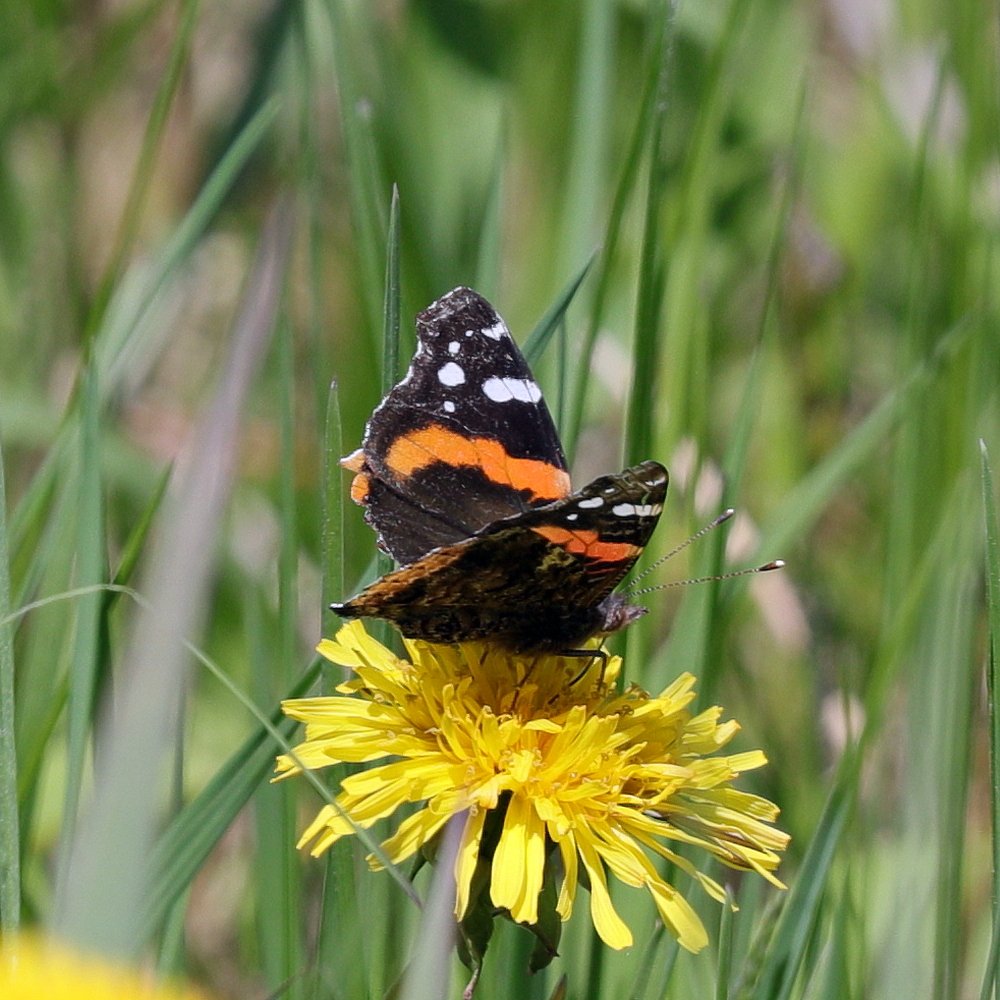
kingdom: Animalia
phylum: Arthropoda
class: Insecta
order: Lepidoptera
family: Nymphalidae
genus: Vanessa
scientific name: Vanessa atalanta
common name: Red Admiral
